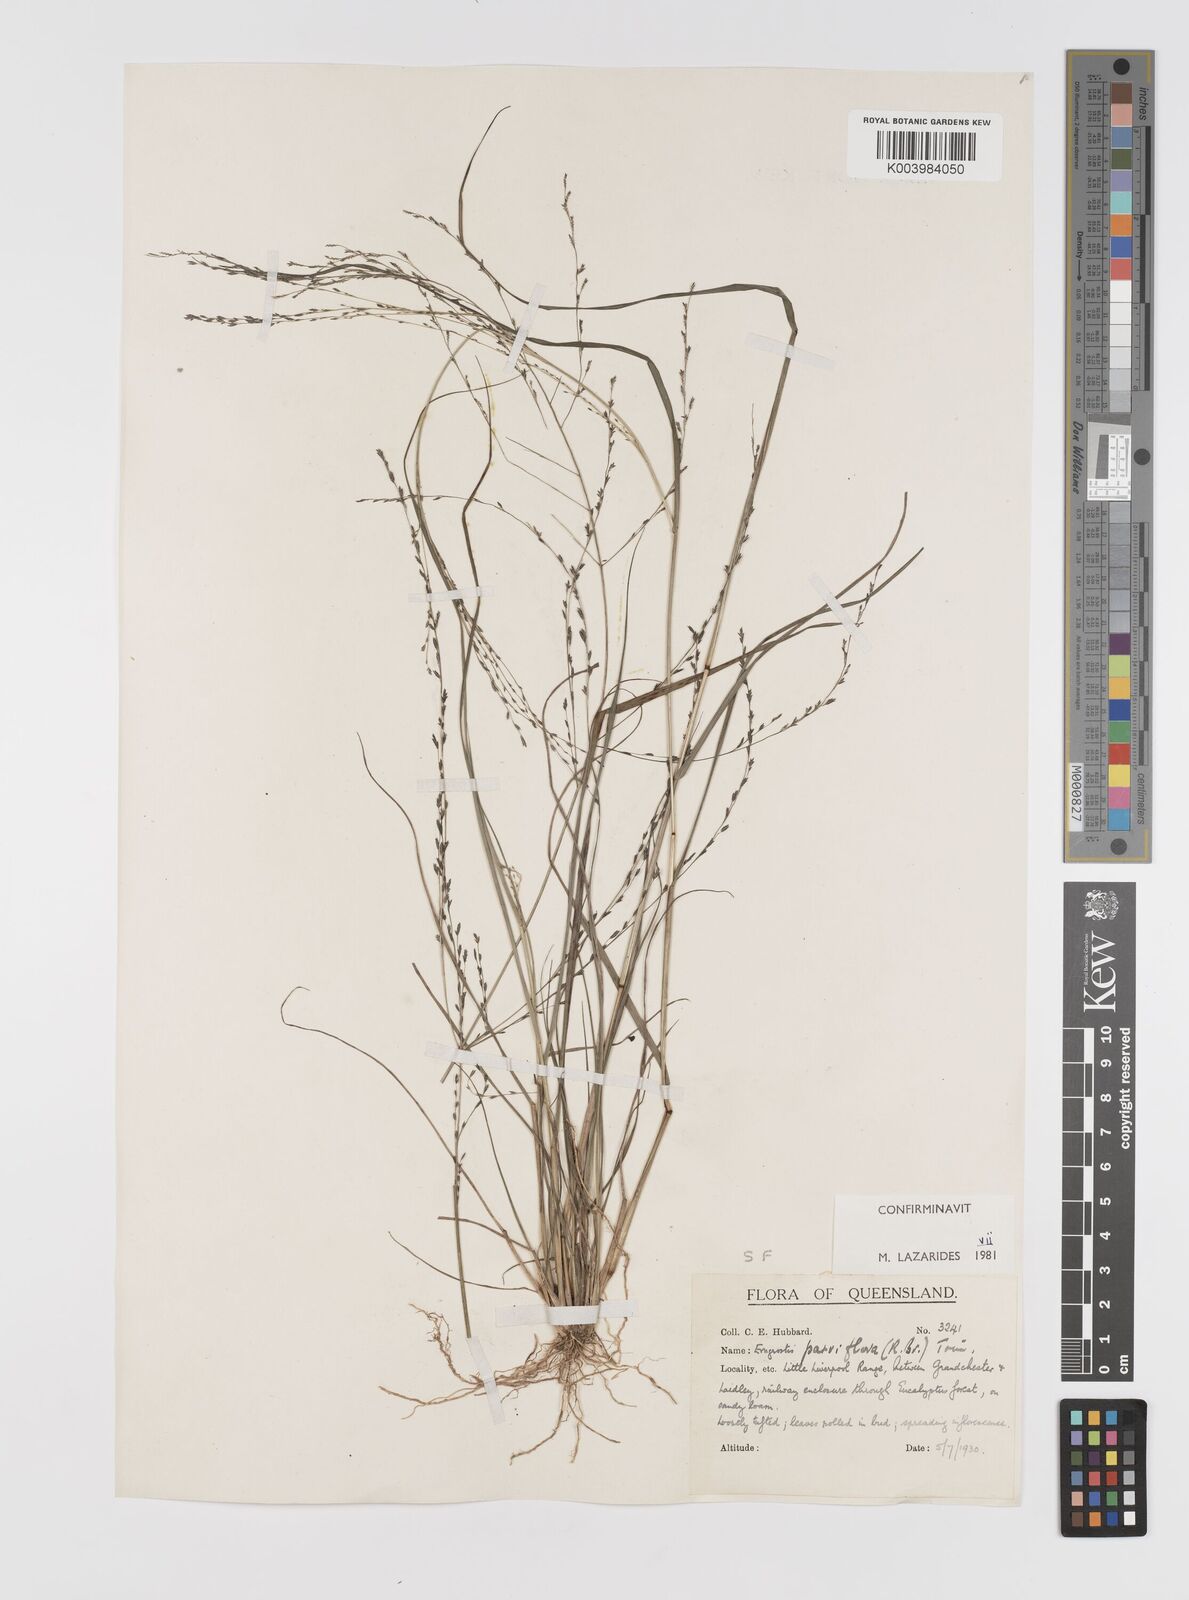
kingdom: Plantae
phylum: Tracheophyta
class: Liliopsida
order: Poales
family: Poaceae
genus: Eragrostis
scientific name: Eragrostis parviflora
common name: Weeping love-grass
